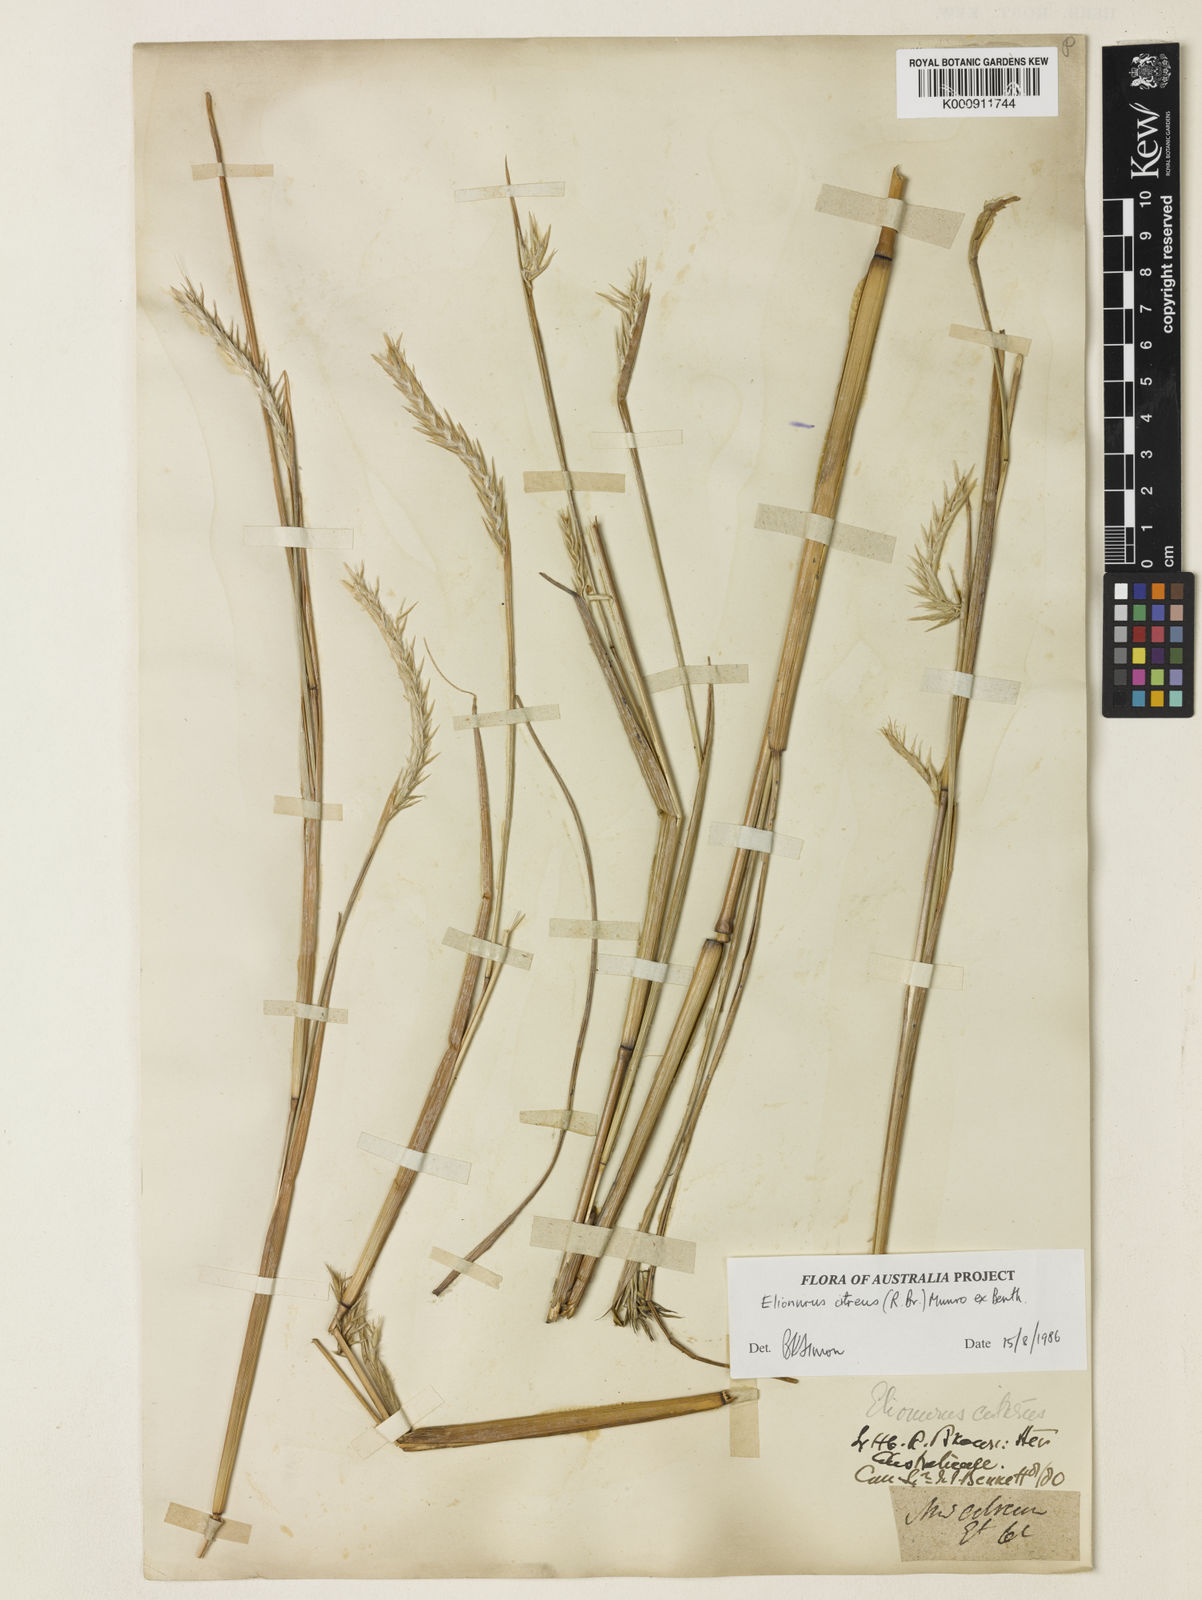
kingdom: Plantae
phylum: Tracheophyta
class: Liliopsida
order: Poales
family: Poaceae
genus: Elionurus
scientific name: Elionurus citreus
